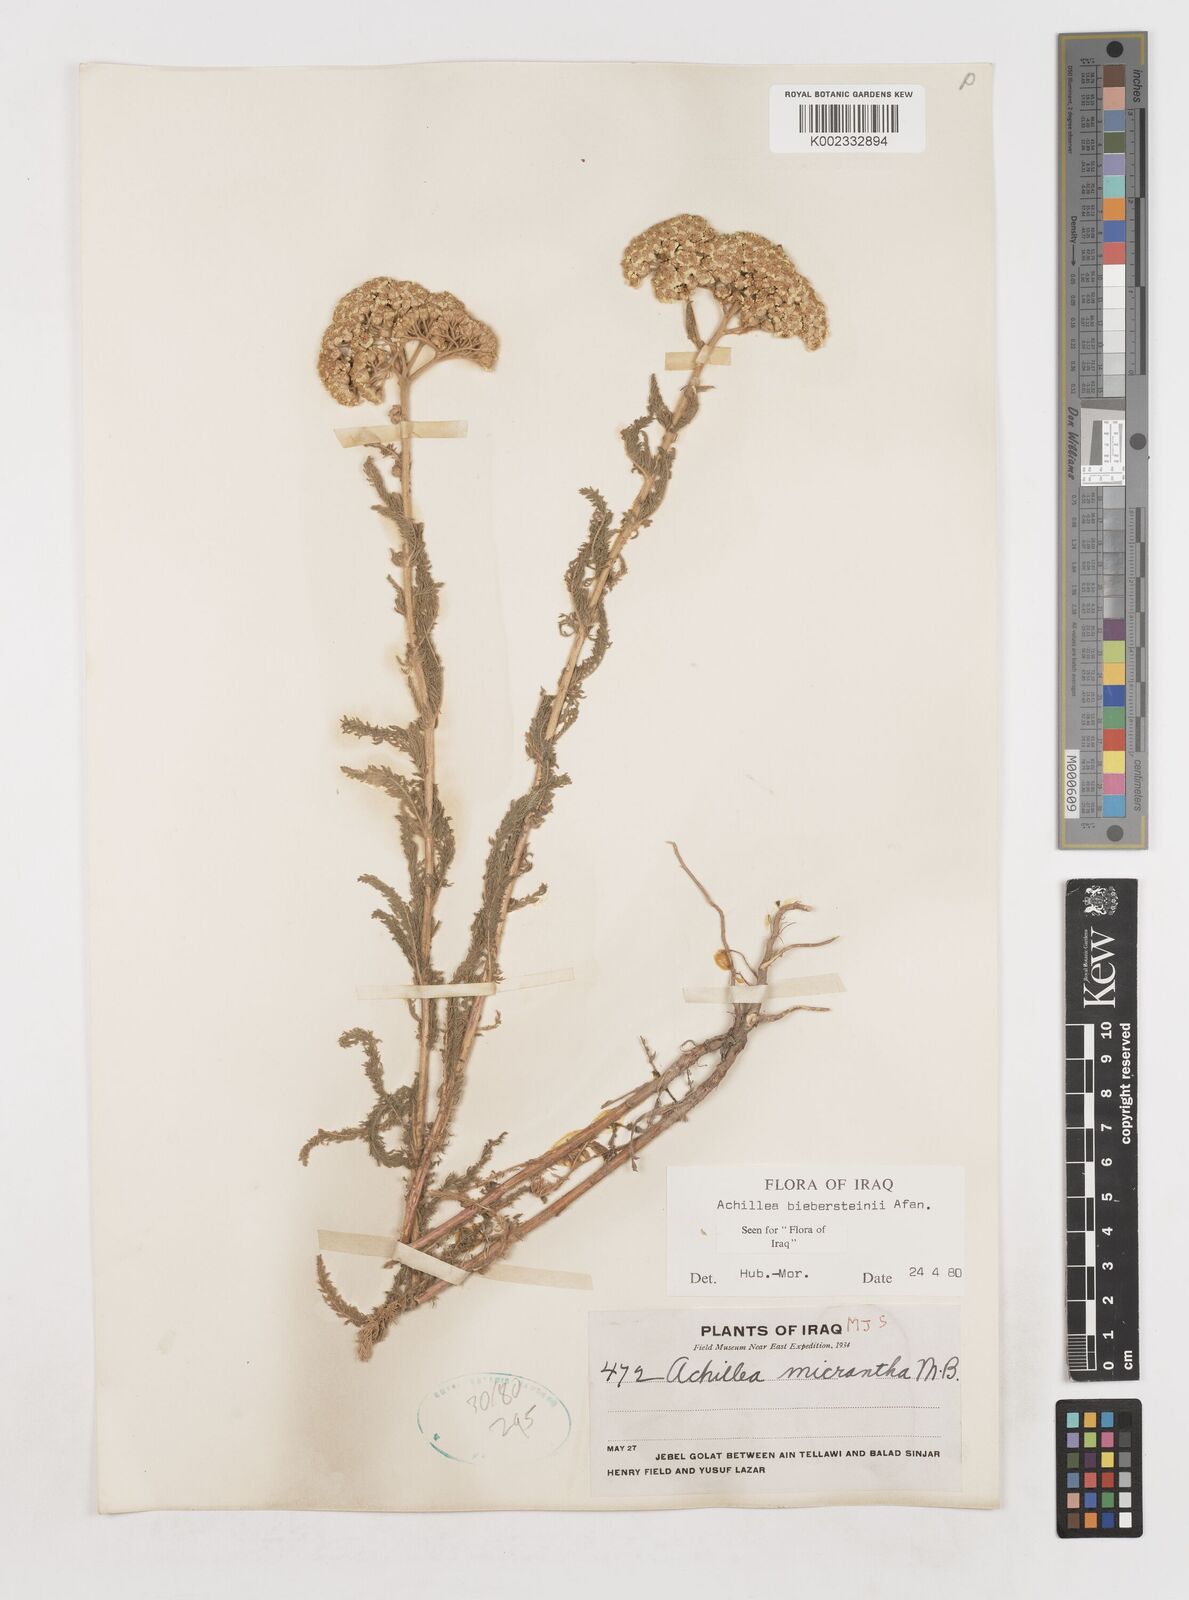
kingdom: Plantae
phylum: Tracheophyta
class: Magnoliopsida
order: Asterales
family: Asteraceae
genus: Achillea
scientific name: Achillea arabica
